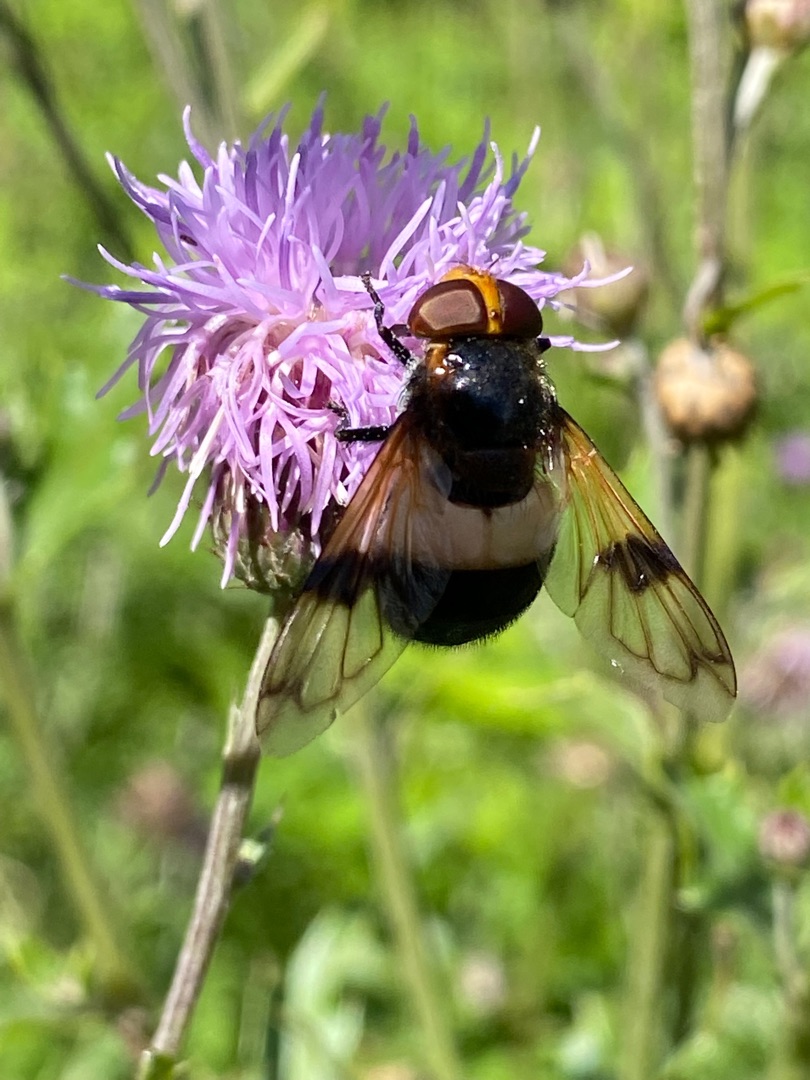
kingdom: Animalia
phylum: Arthropoda
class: Insecta
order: Diptera
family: Syrphidae
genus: Volucella
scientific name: Volucella pellucens
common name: Hvidbåndet humlesvirreflue
